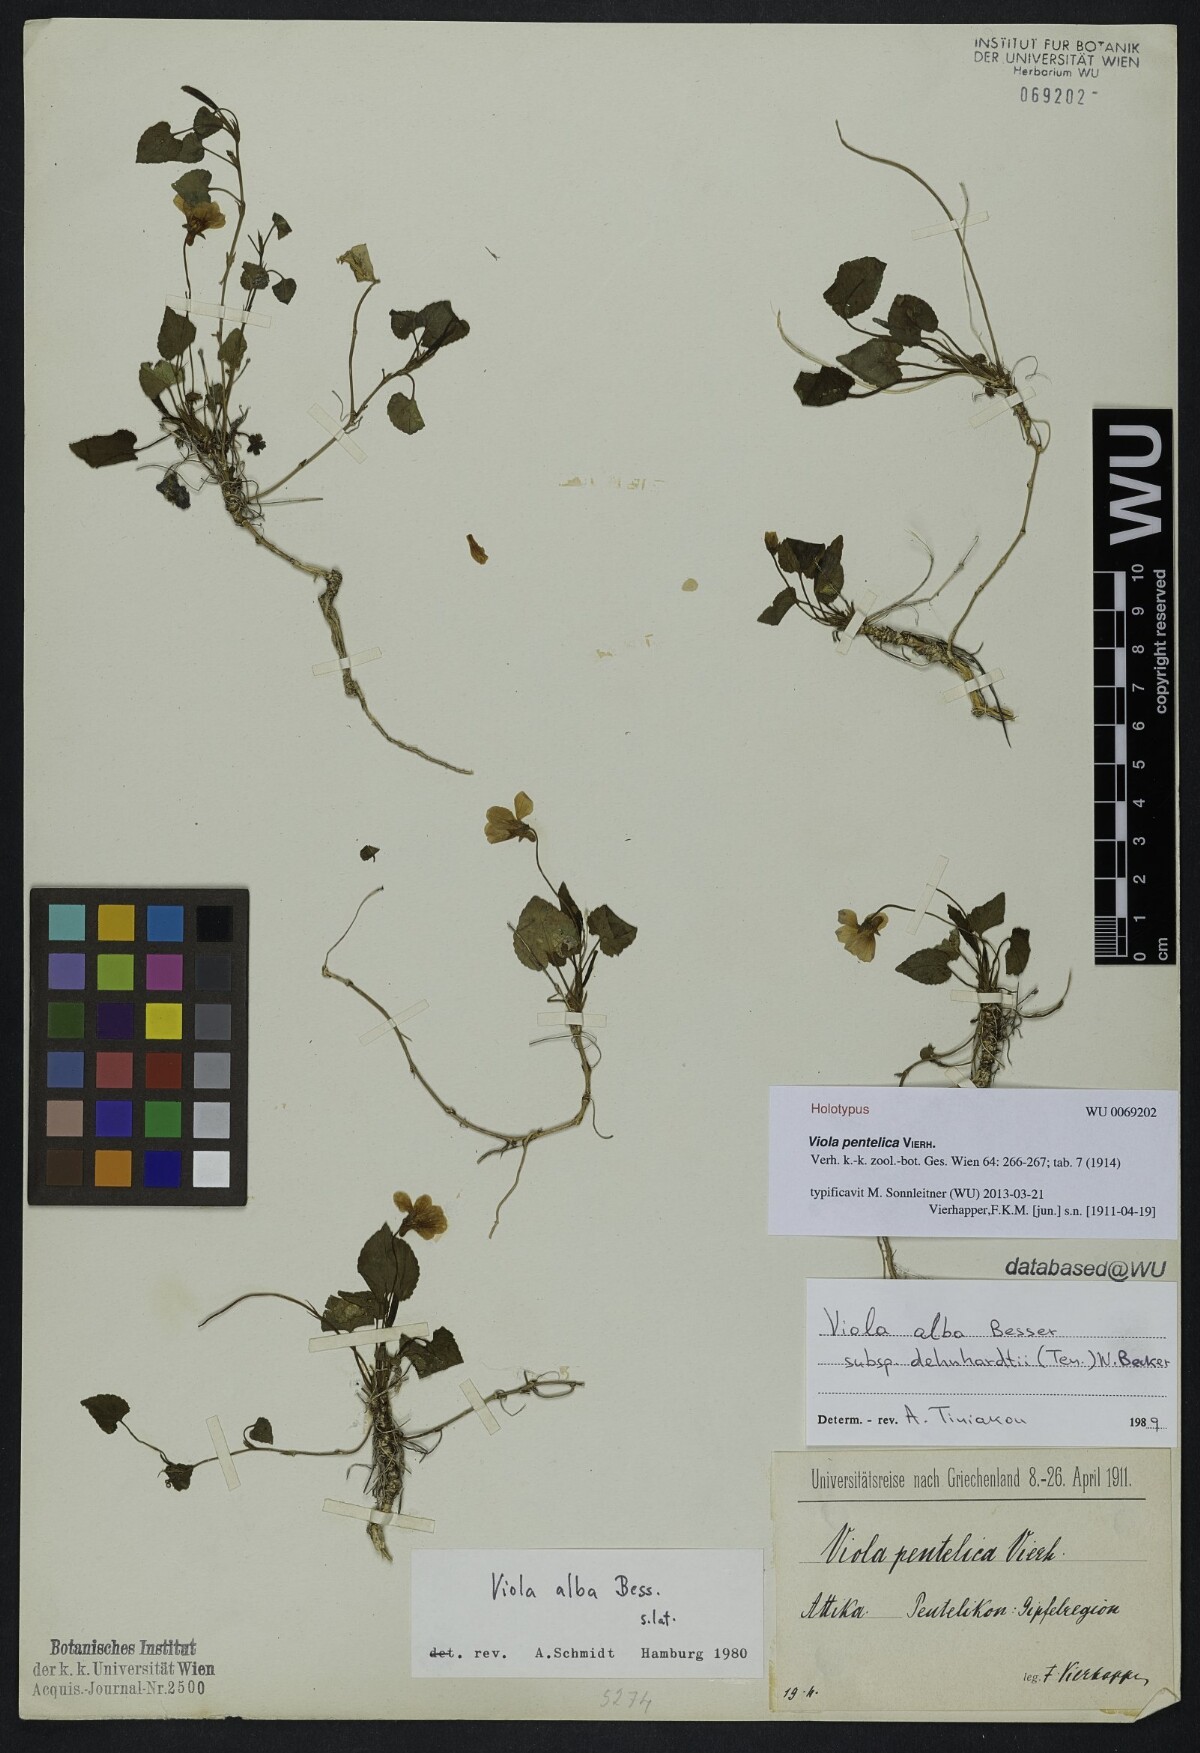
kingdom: Plantae
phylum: Tracheophyta
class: Magnoliopsida
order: Malpighiales
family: Violaceae
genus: Viola
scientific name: Viola alba
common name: White violet
